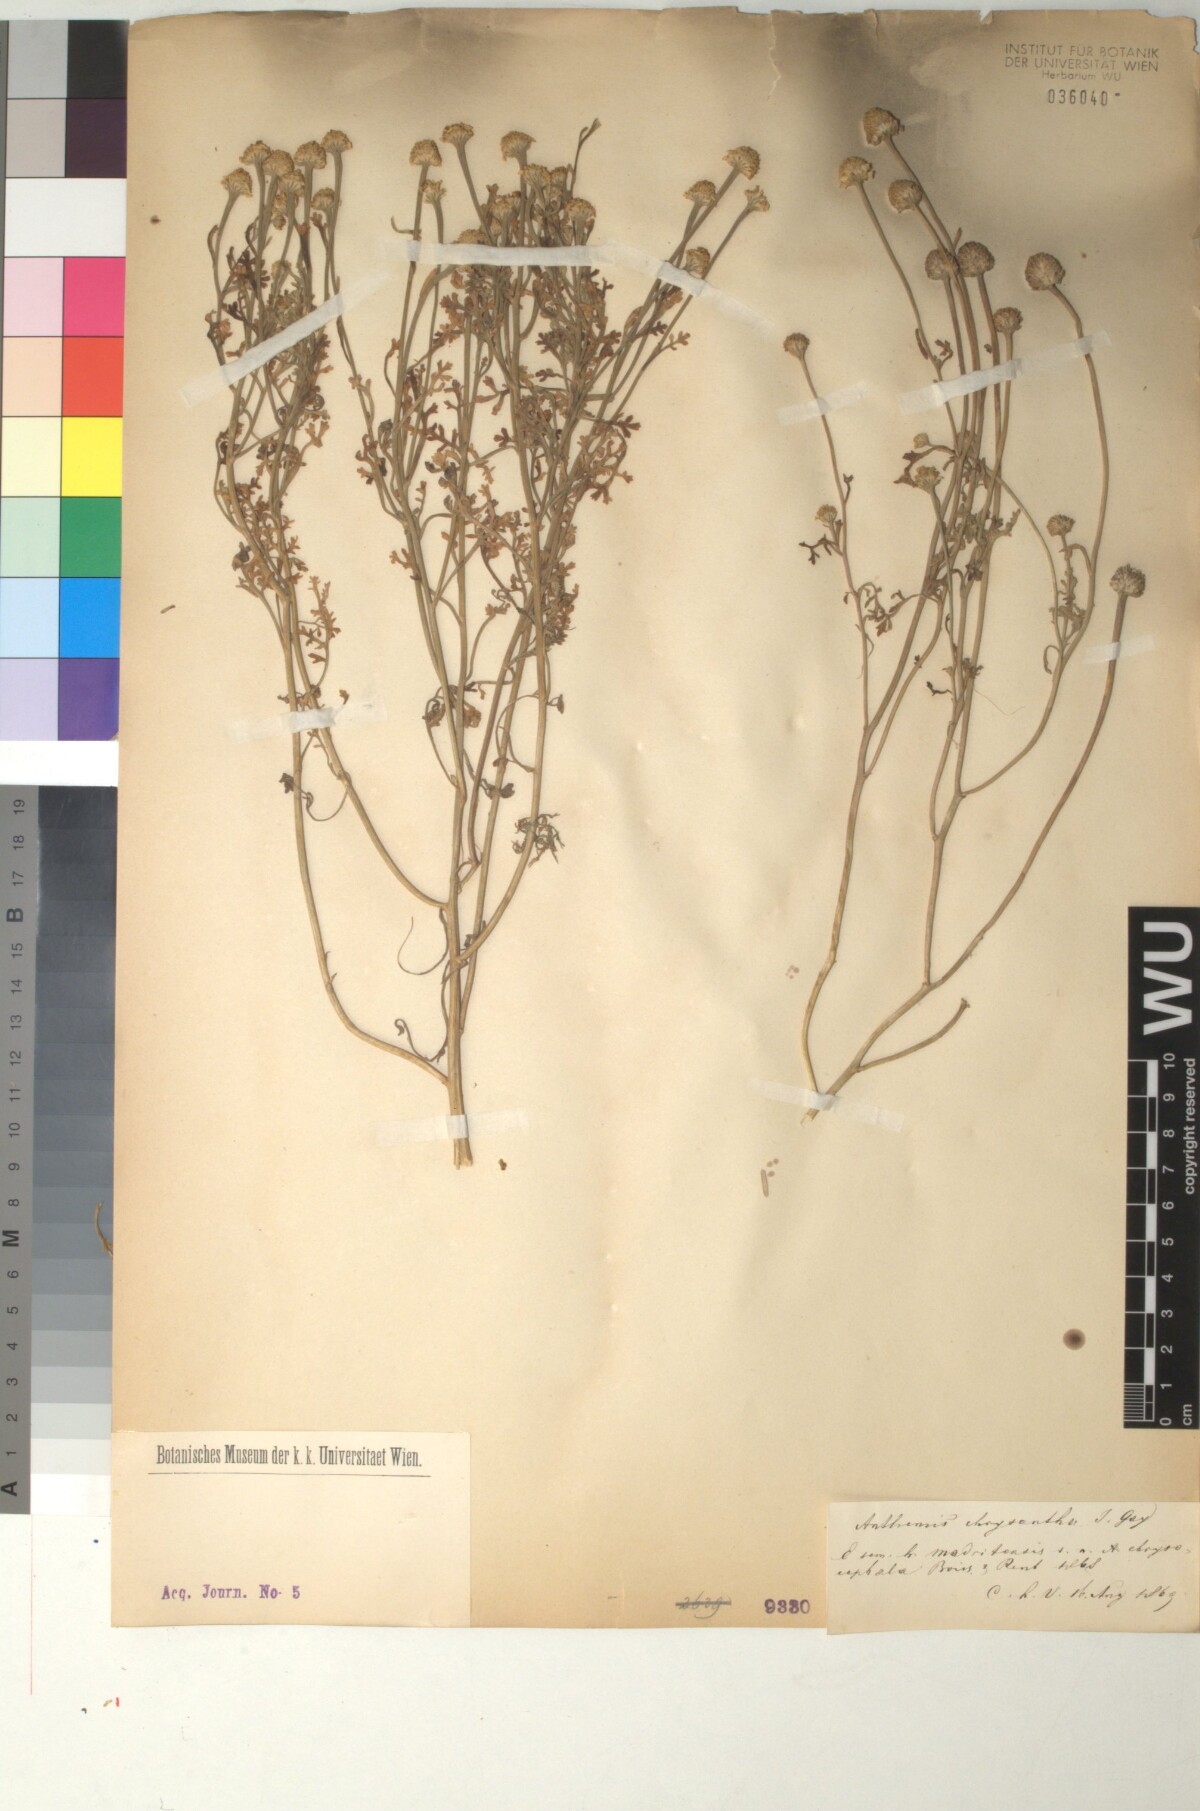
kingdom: Plantae
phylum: Tracheophyta
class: Magnoliopsida
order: Asterales
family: Asteraceae
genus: Anthemis
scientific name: Anthemis chrysantha
